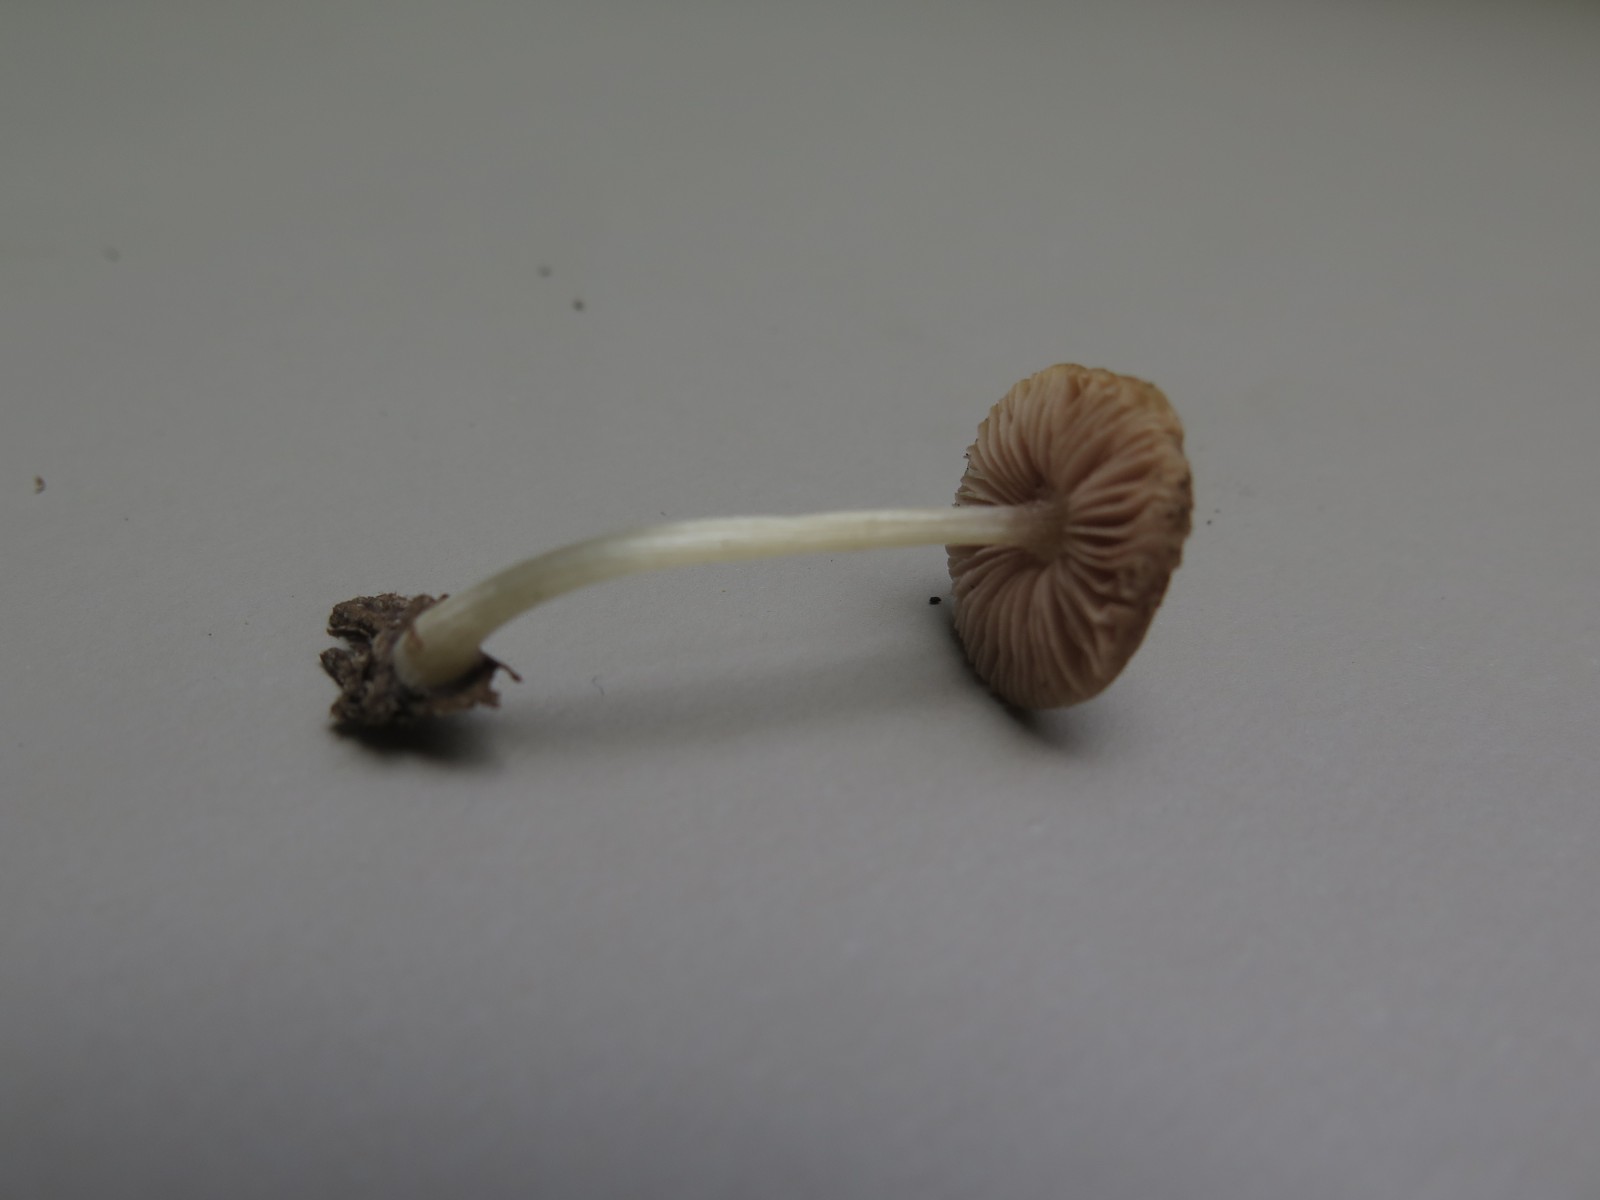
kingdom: Fungi
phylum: Basidiomycota
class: Agaricomycetes
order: Agaricales
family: Pluteaceae
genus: Pluteus
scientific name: Pluteus
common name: pudret skærmhat
